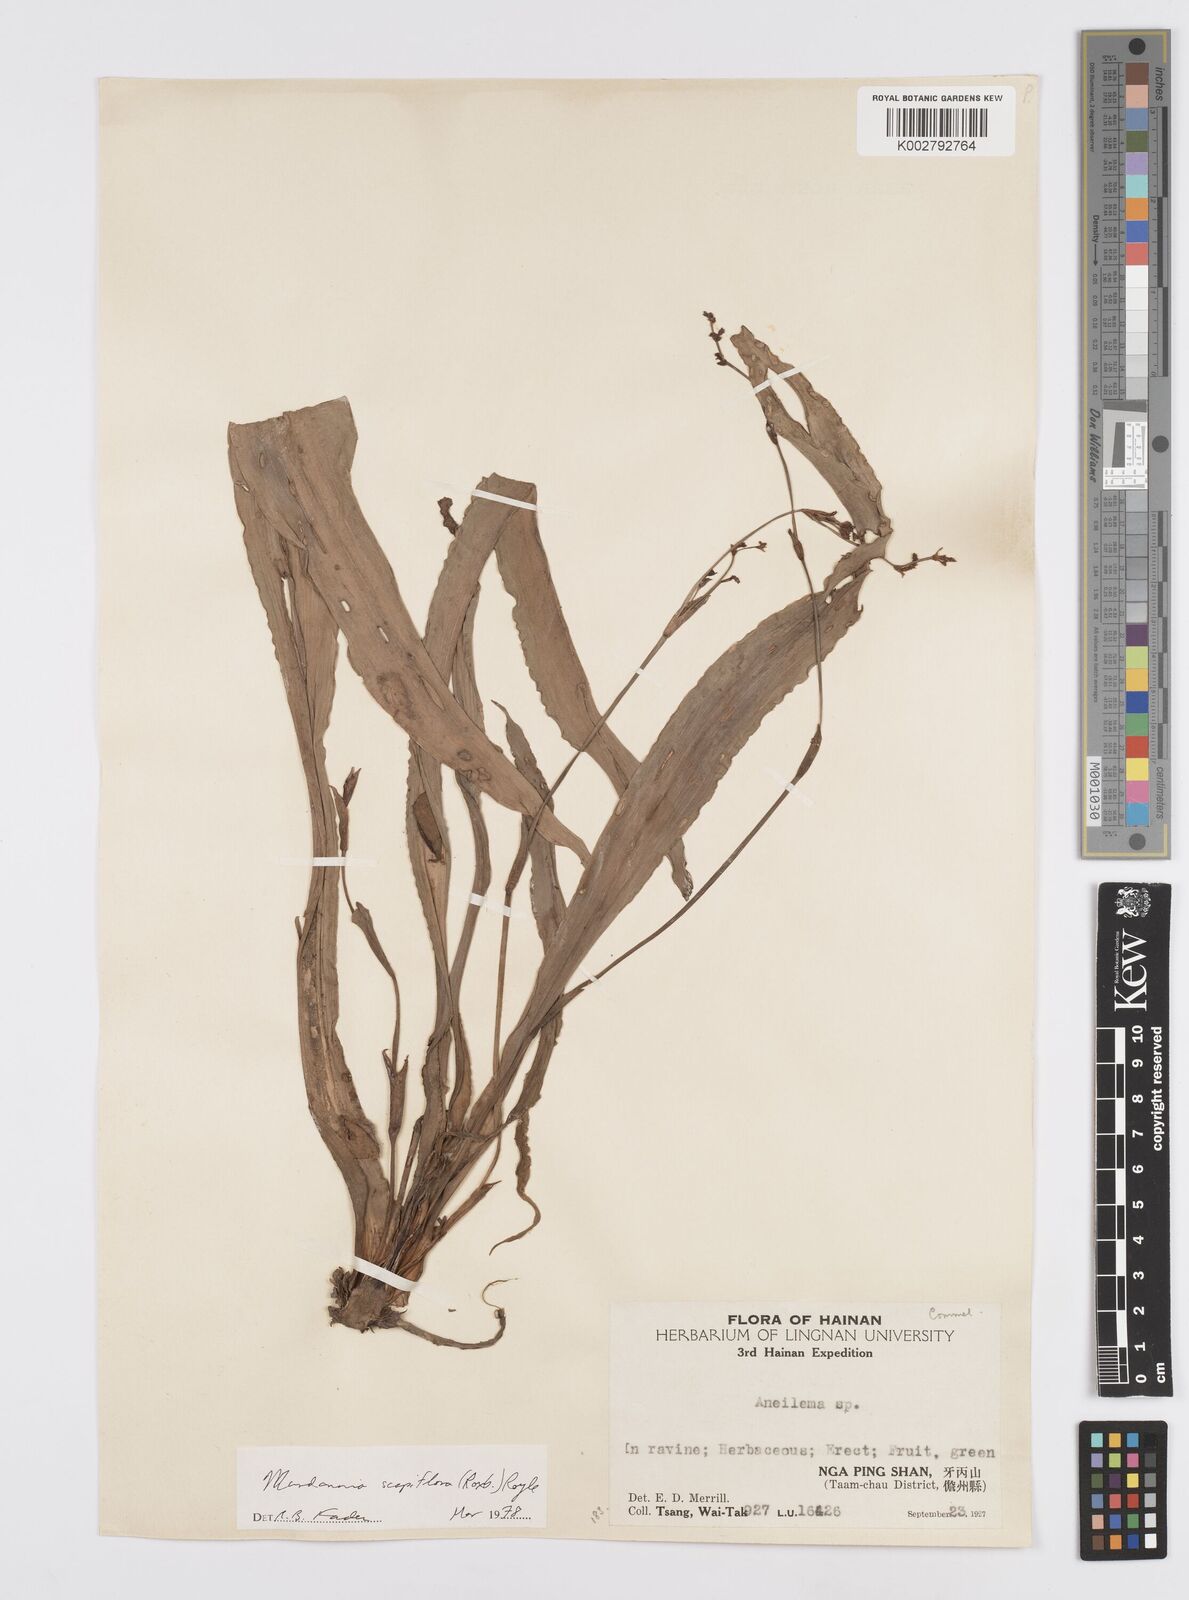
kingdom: Plantae
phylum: Tracheophyta
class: Liliopsida
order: Commelinales
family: Commelinaceae
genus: Murdannia
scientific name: Murdannia edulis
